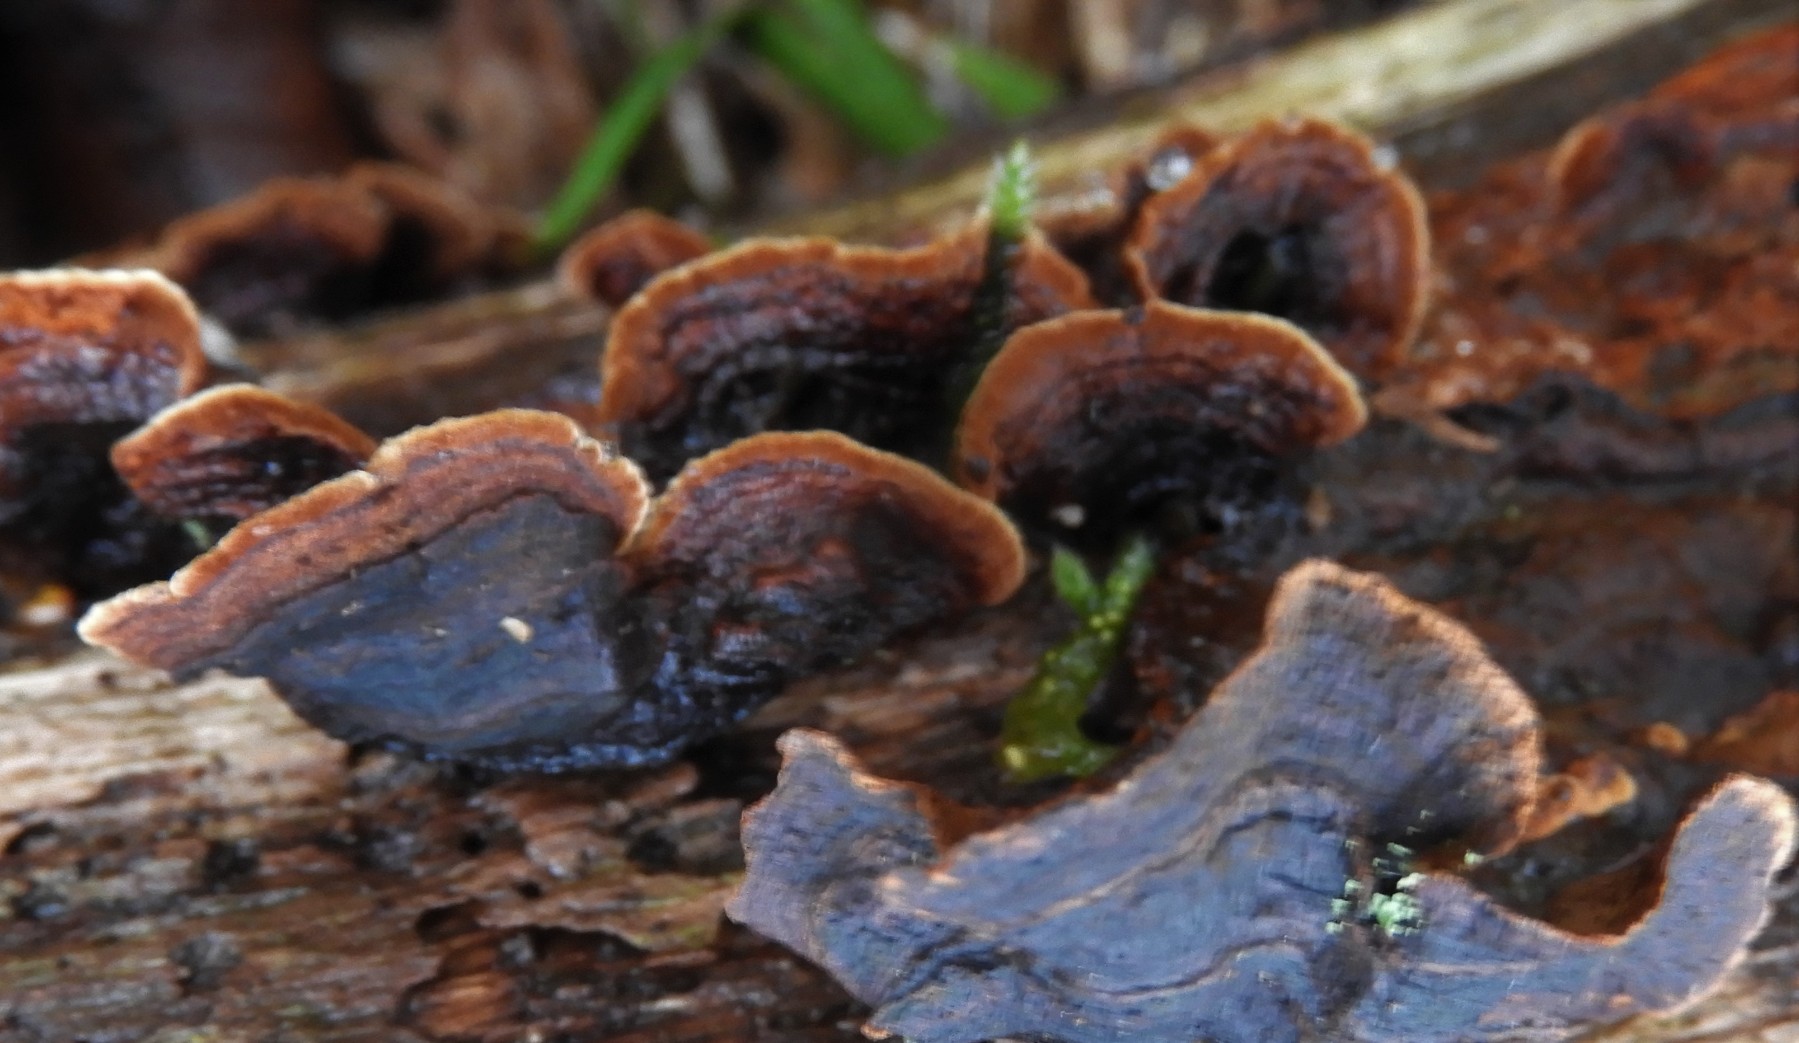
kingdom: Fungi
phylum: Basidiomycota
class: Agaricomycetes
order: Hymenochaetales
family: Hymenochaetaceae
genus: Hymenochaete
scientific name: Hymenochaete rubiginosa
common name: stiv ruslædersvamp
